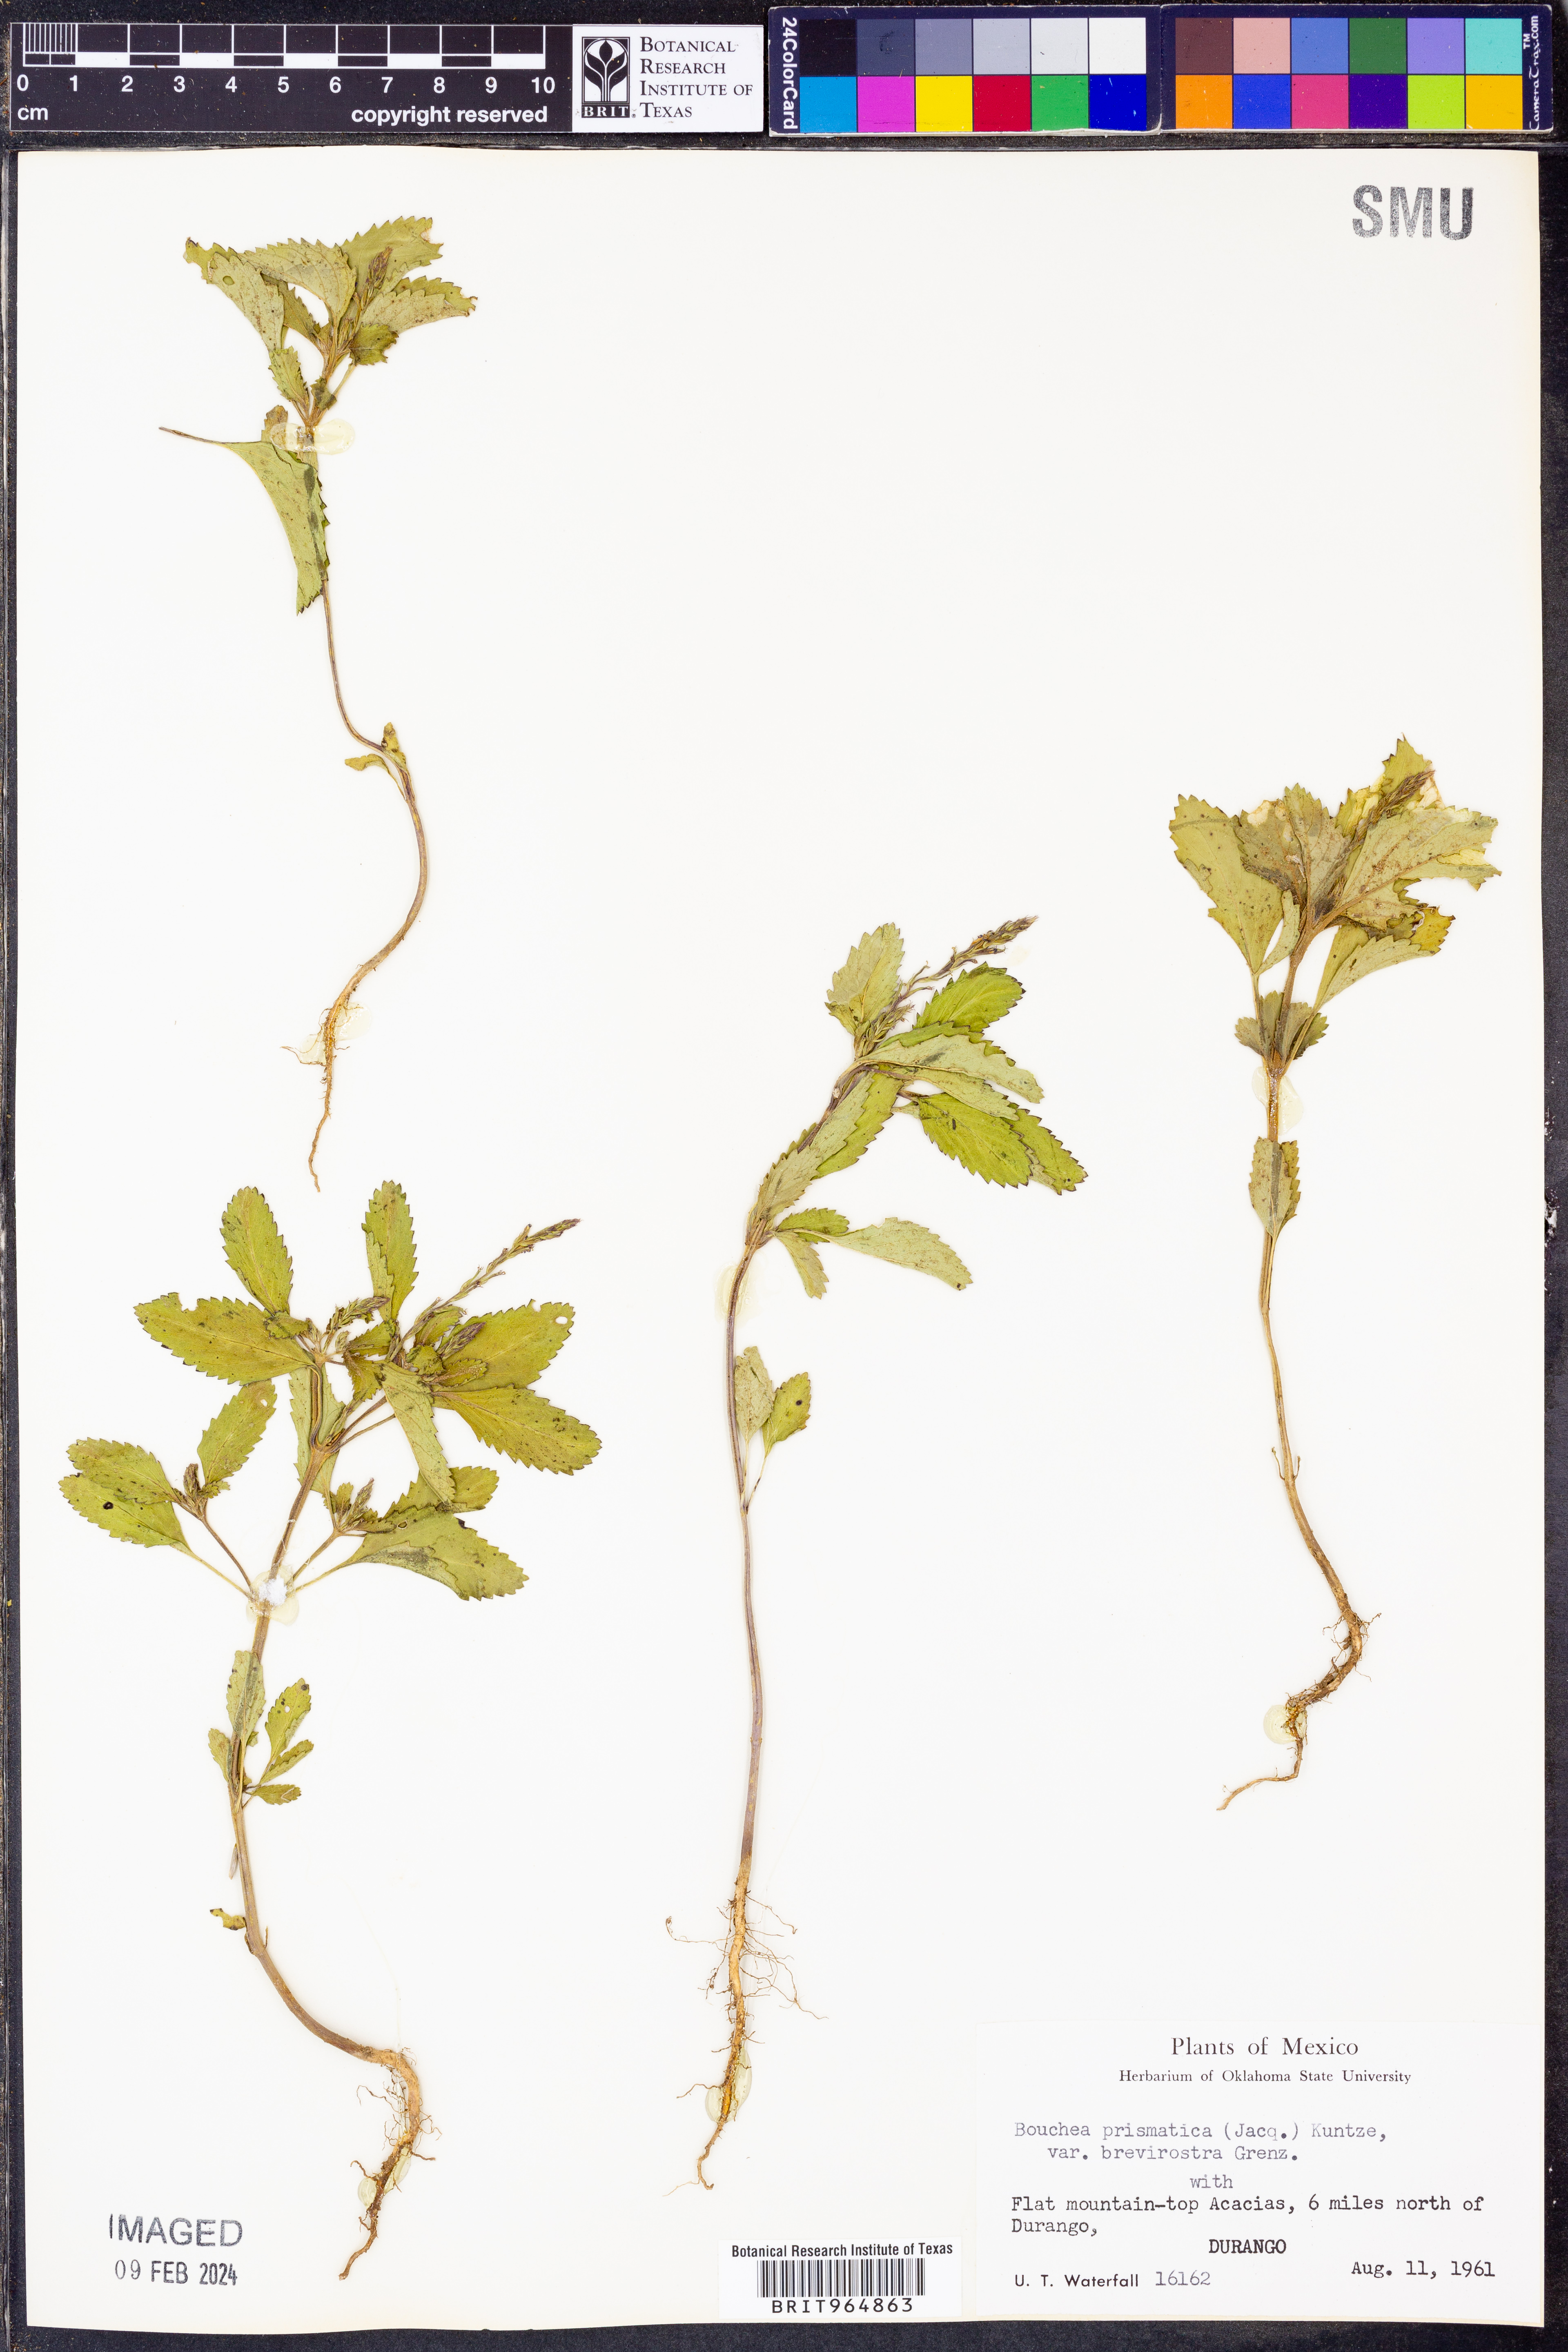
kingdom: Plantae
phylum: Tracheophyta
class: Magnoliopsida
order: Lamiales
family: Verbenaceae
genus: Bouchea
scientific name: Bouchea
